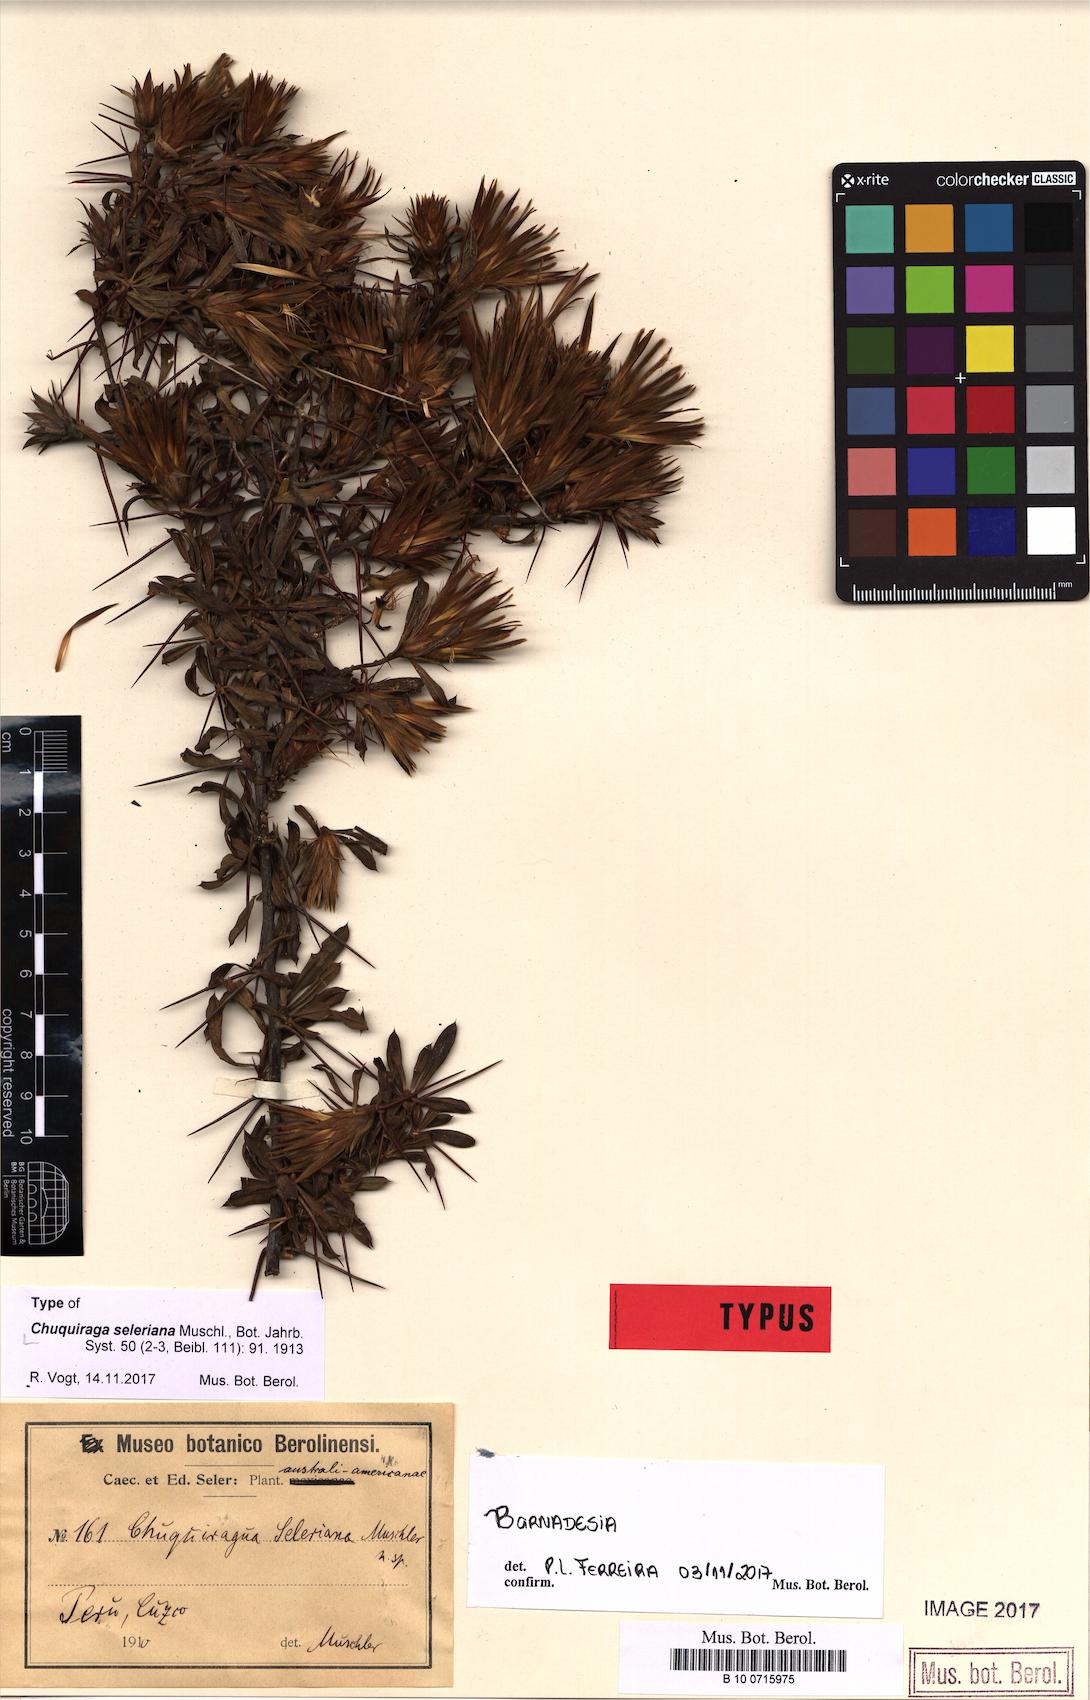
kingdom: Plantae
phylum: Tracheophyta
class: Magnoliopsida
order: Asterales
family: Asteraceae
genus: Barnadesia
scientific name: Barnadesia horrida
